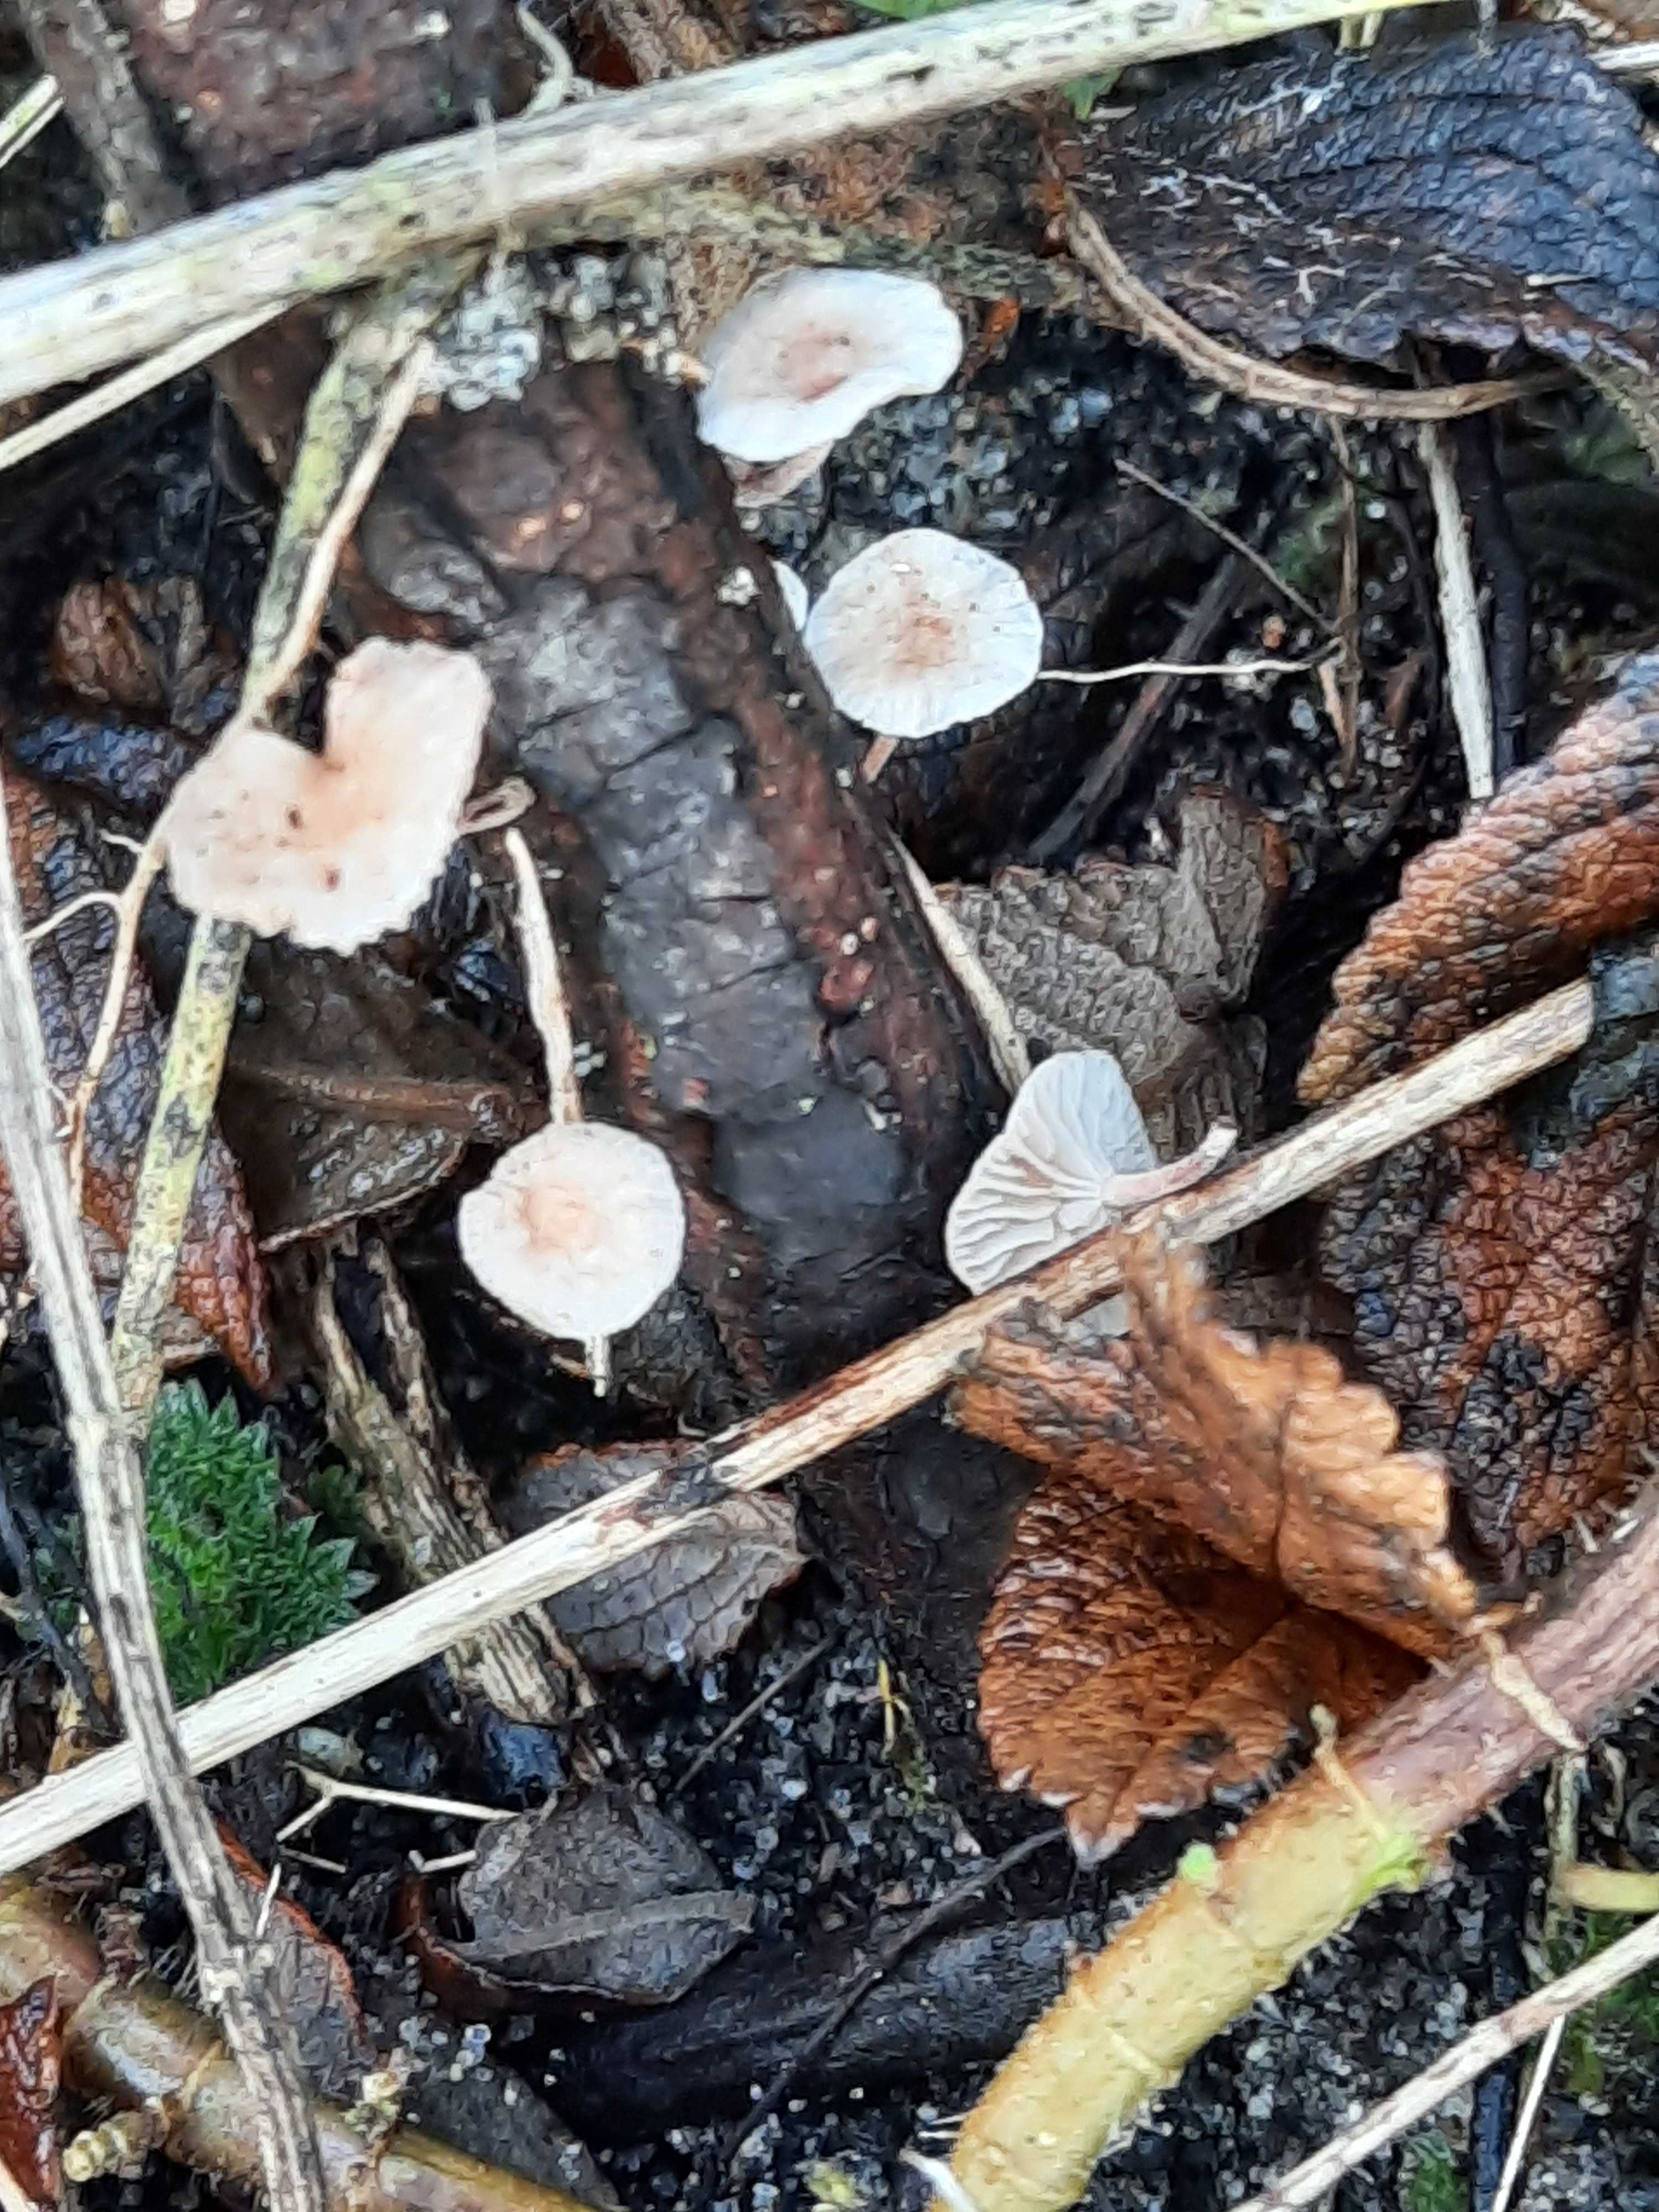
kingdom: Fungi
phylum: Basidiomycota
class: Agaricomycetes
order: Agaricales
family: Omphalotaceae
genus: Collybiopsis
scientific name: Collybiopsis ramealis
